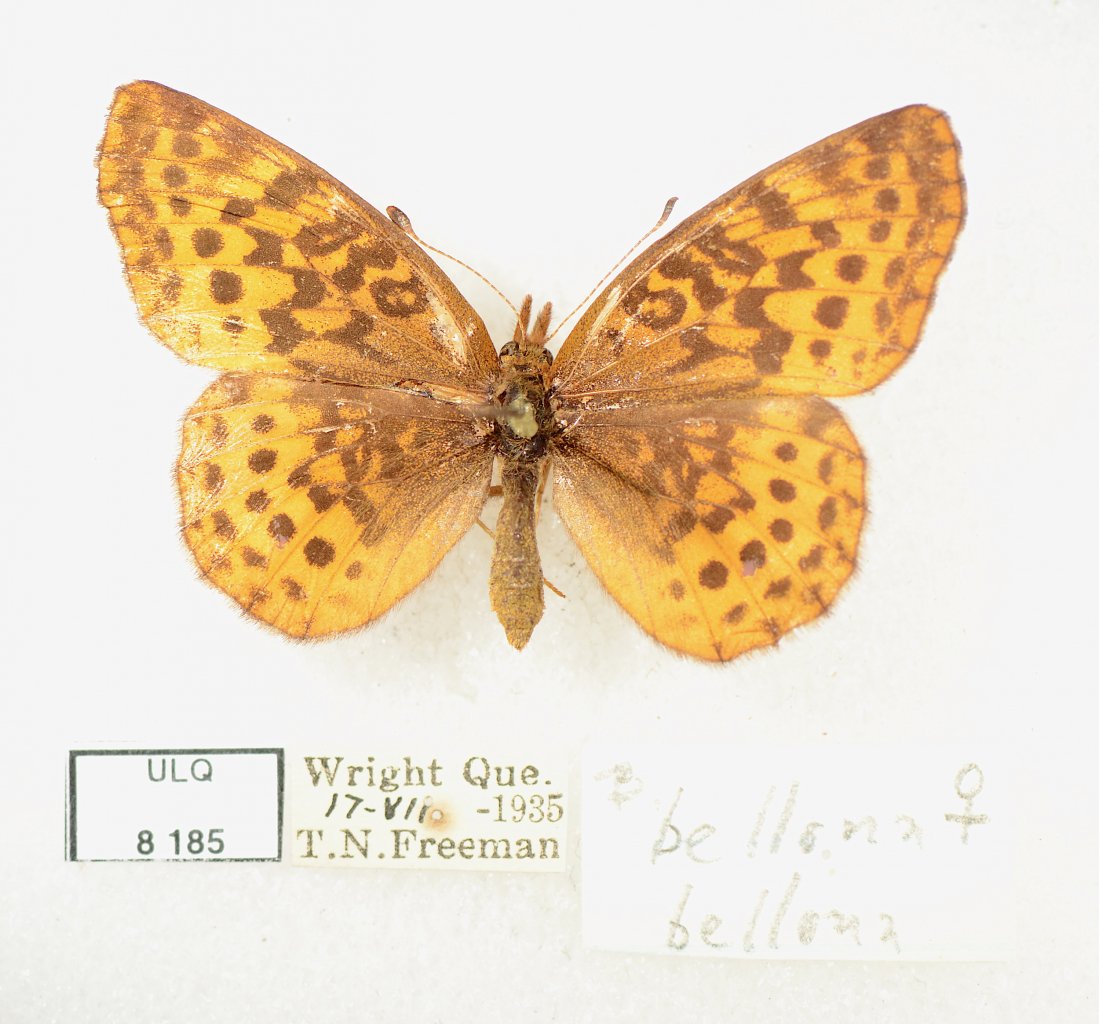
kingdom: Animalia
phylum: Arthropoda
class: Insecta
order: Lepidoptera
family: Nymphalidae
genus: Clossiana
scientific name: Clossiana toddi
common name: Meadow Fritillary
